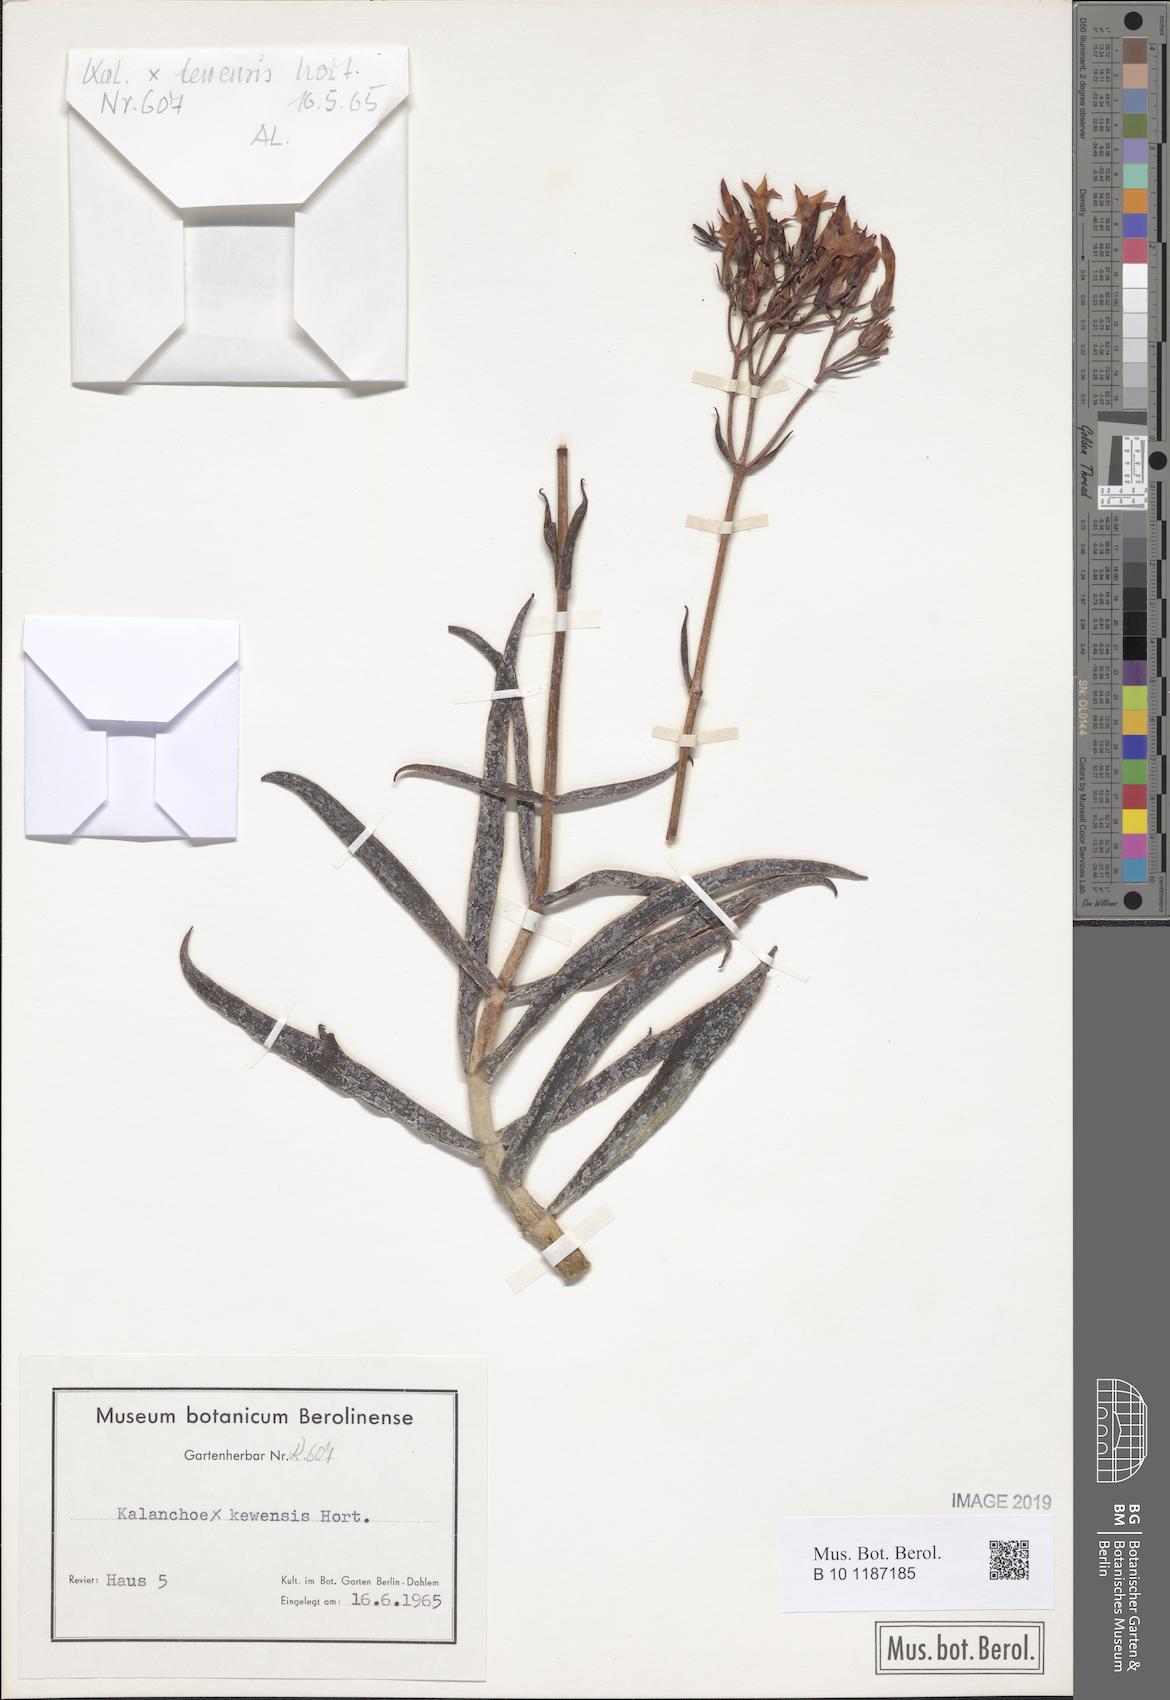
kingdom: Plantae
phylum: Tracheophyta
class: Magnoliopsida
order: Saxifragales
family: Crassulaceae
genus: Kalanchoe
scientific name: Kalanchoe kewensis
